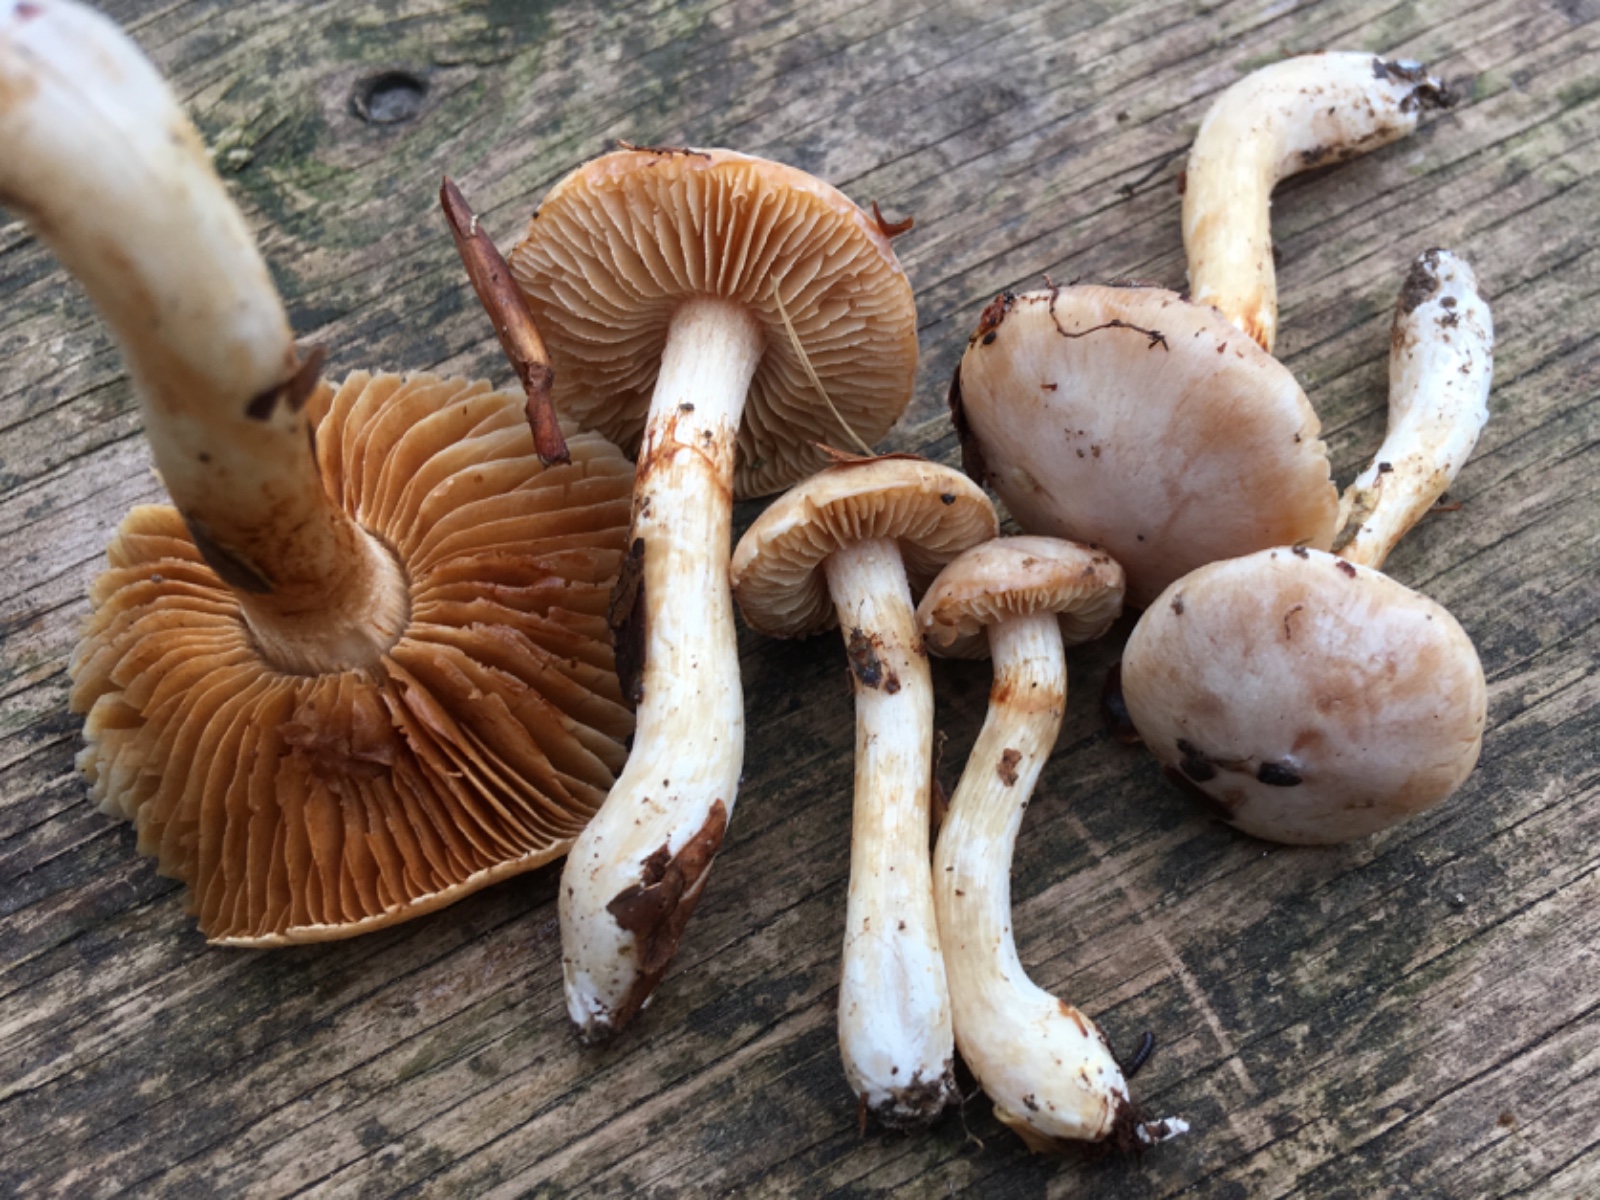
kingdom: Fungi
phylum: Basidiomycota
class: Agaricomycetes
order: Agaricales
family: Cortinariaceae
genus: Thaxterogaster
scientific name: Thaxterogaster barbatus
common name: elfenbens-slørhat
